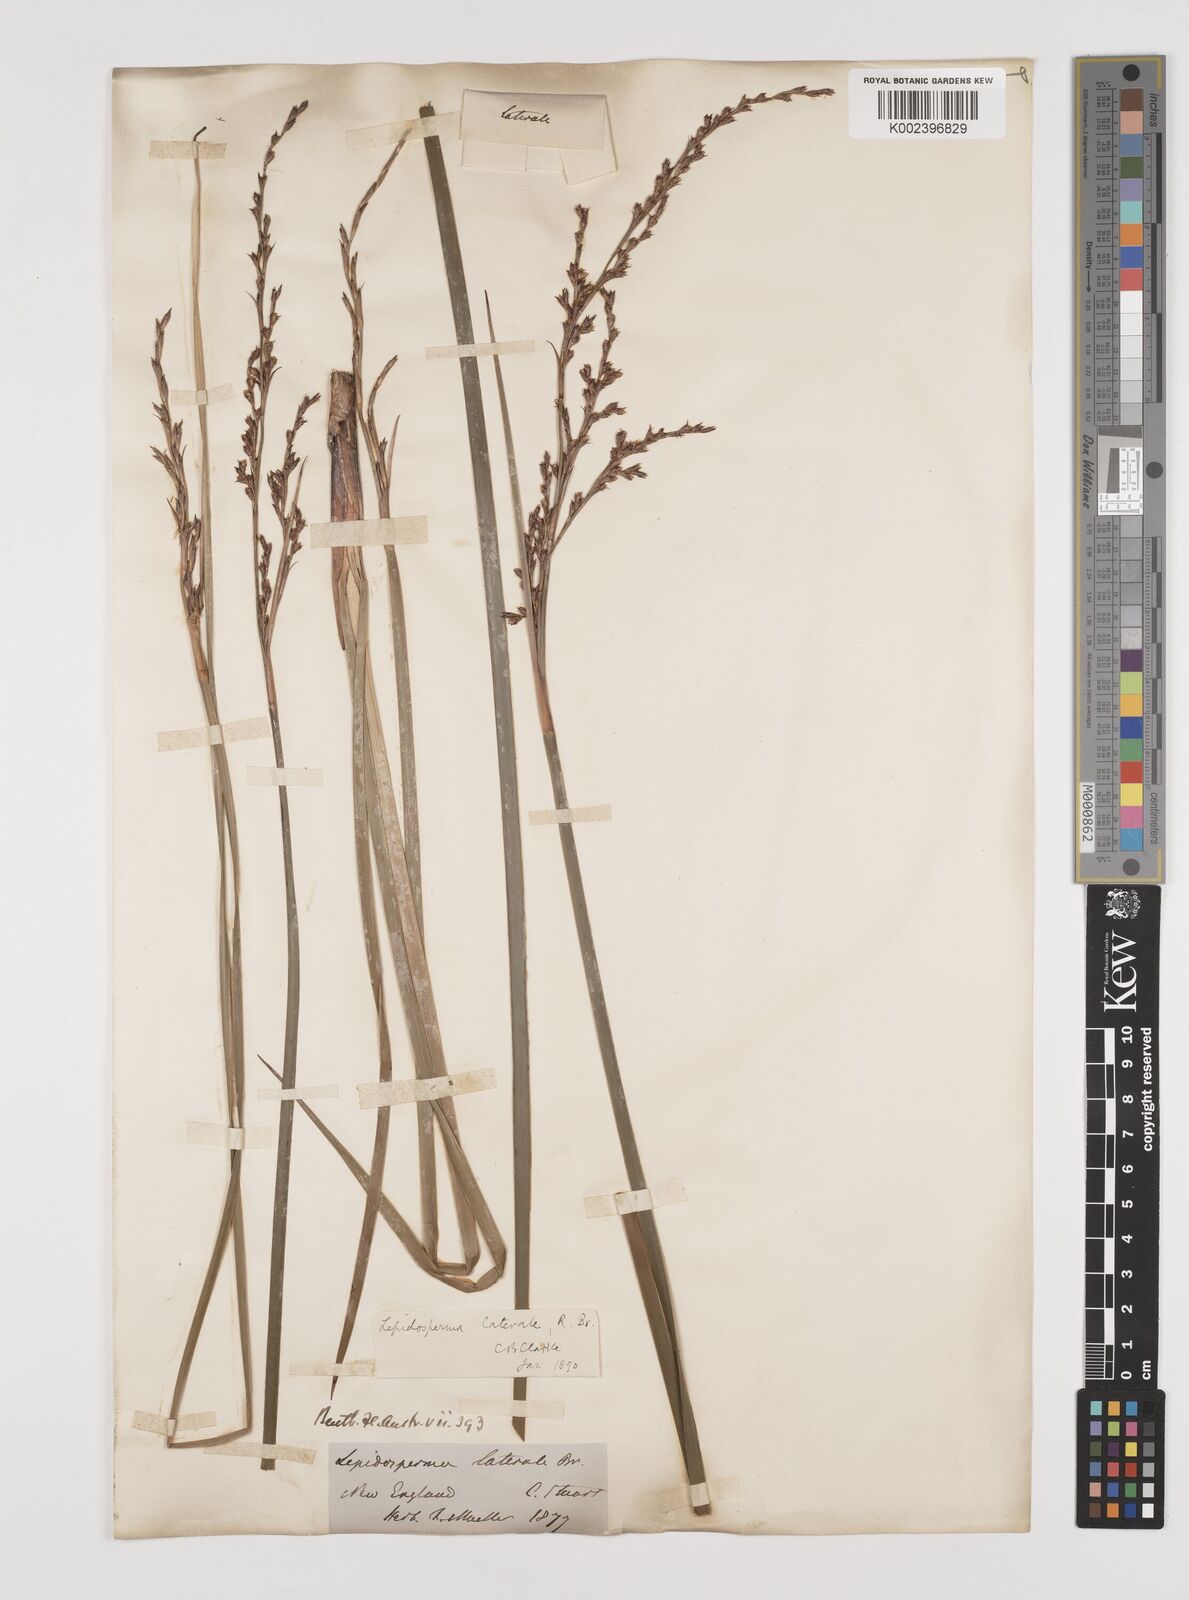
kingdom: Plantae
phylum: Tracheophyta
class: Liliopsida
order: Poales
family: Cyperaceae
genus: Lepidosperma
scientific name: Lepidosperma laterale
